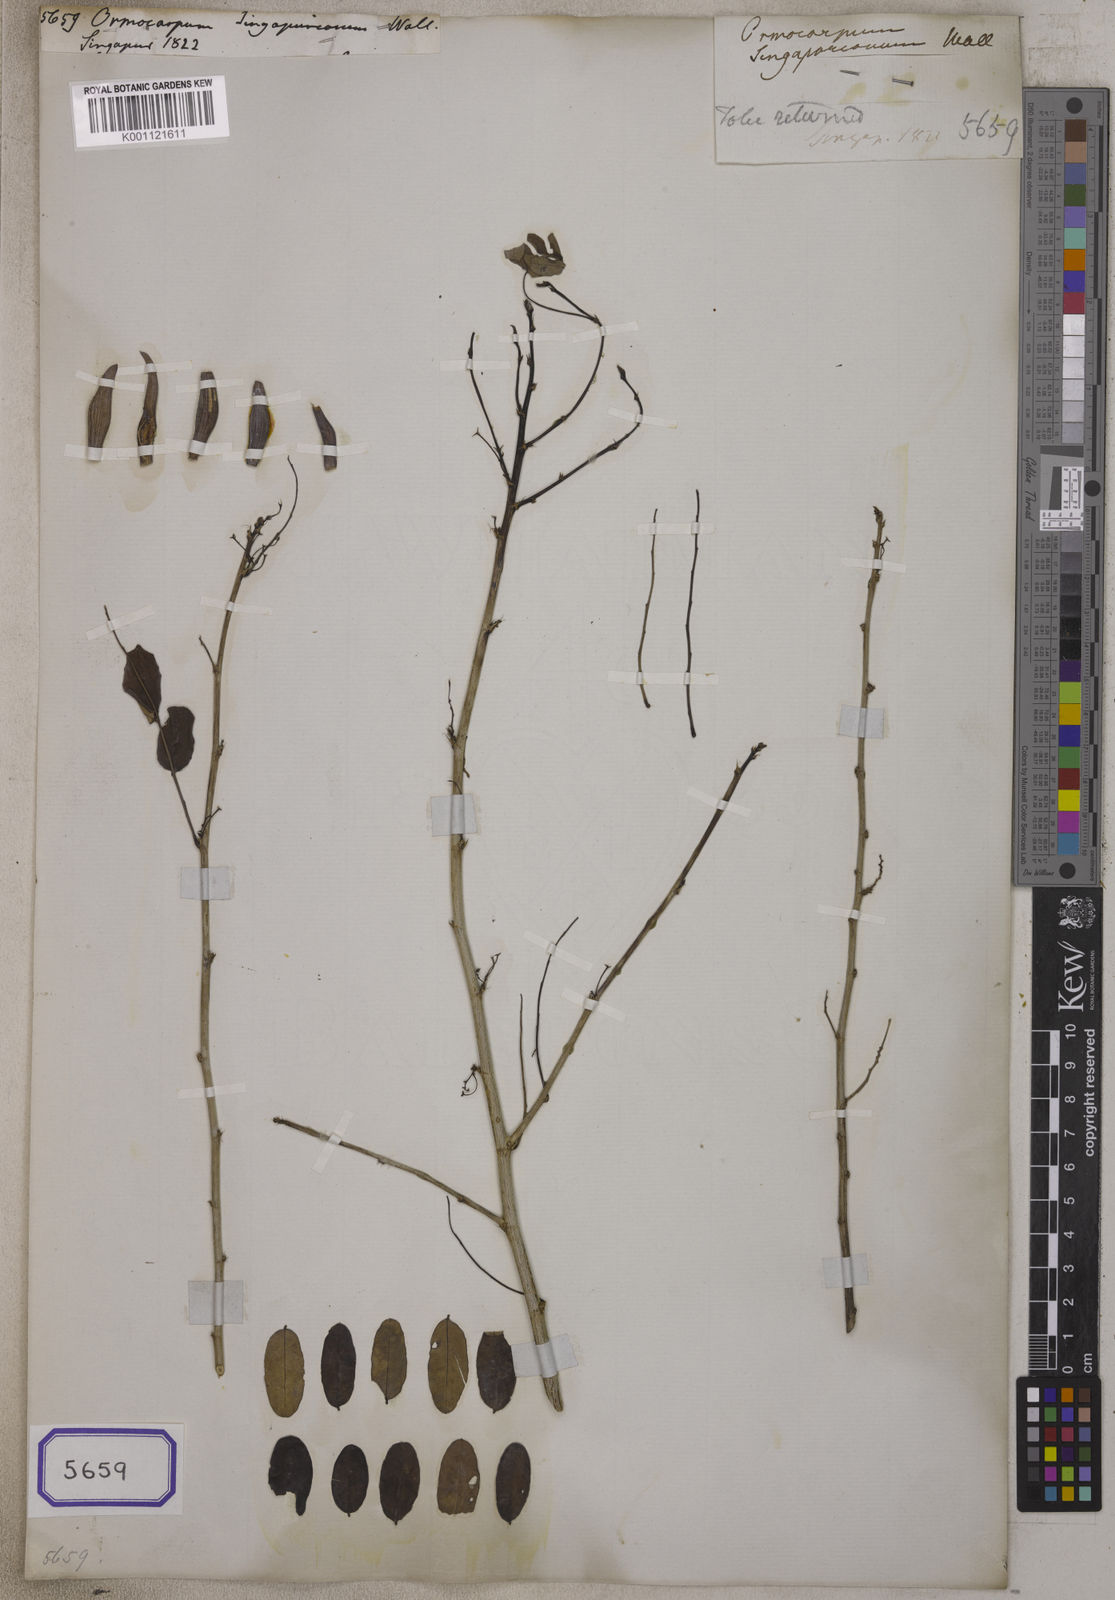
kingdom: Plantae
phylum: Tracheophyta
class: Magnoliopsida
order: Fabales
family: Fabaceae
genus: Ormocarpum
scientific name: Ormocarpum cochinchinense
